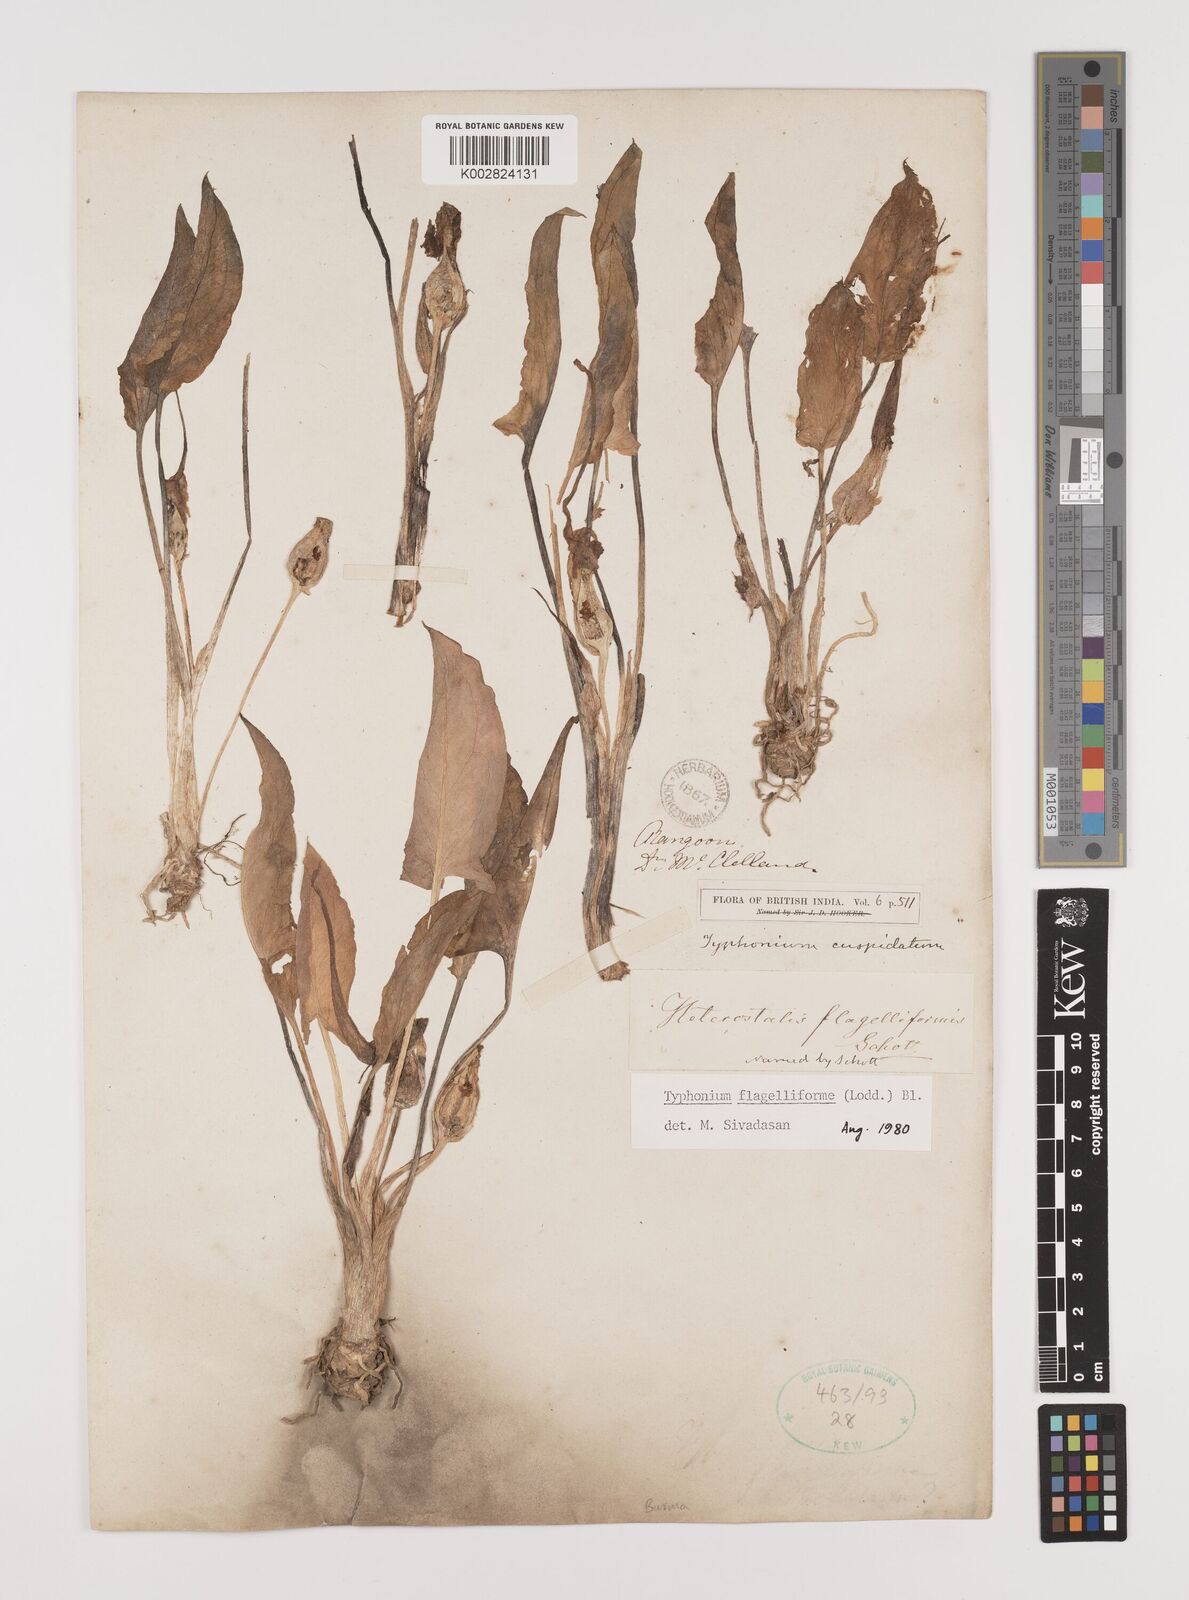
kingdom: Plantae
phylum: Tracheophyta
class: Liliopsida
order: Alismatales
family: Araceae
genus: Typhonium
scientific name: Typhonium flagelliforme
